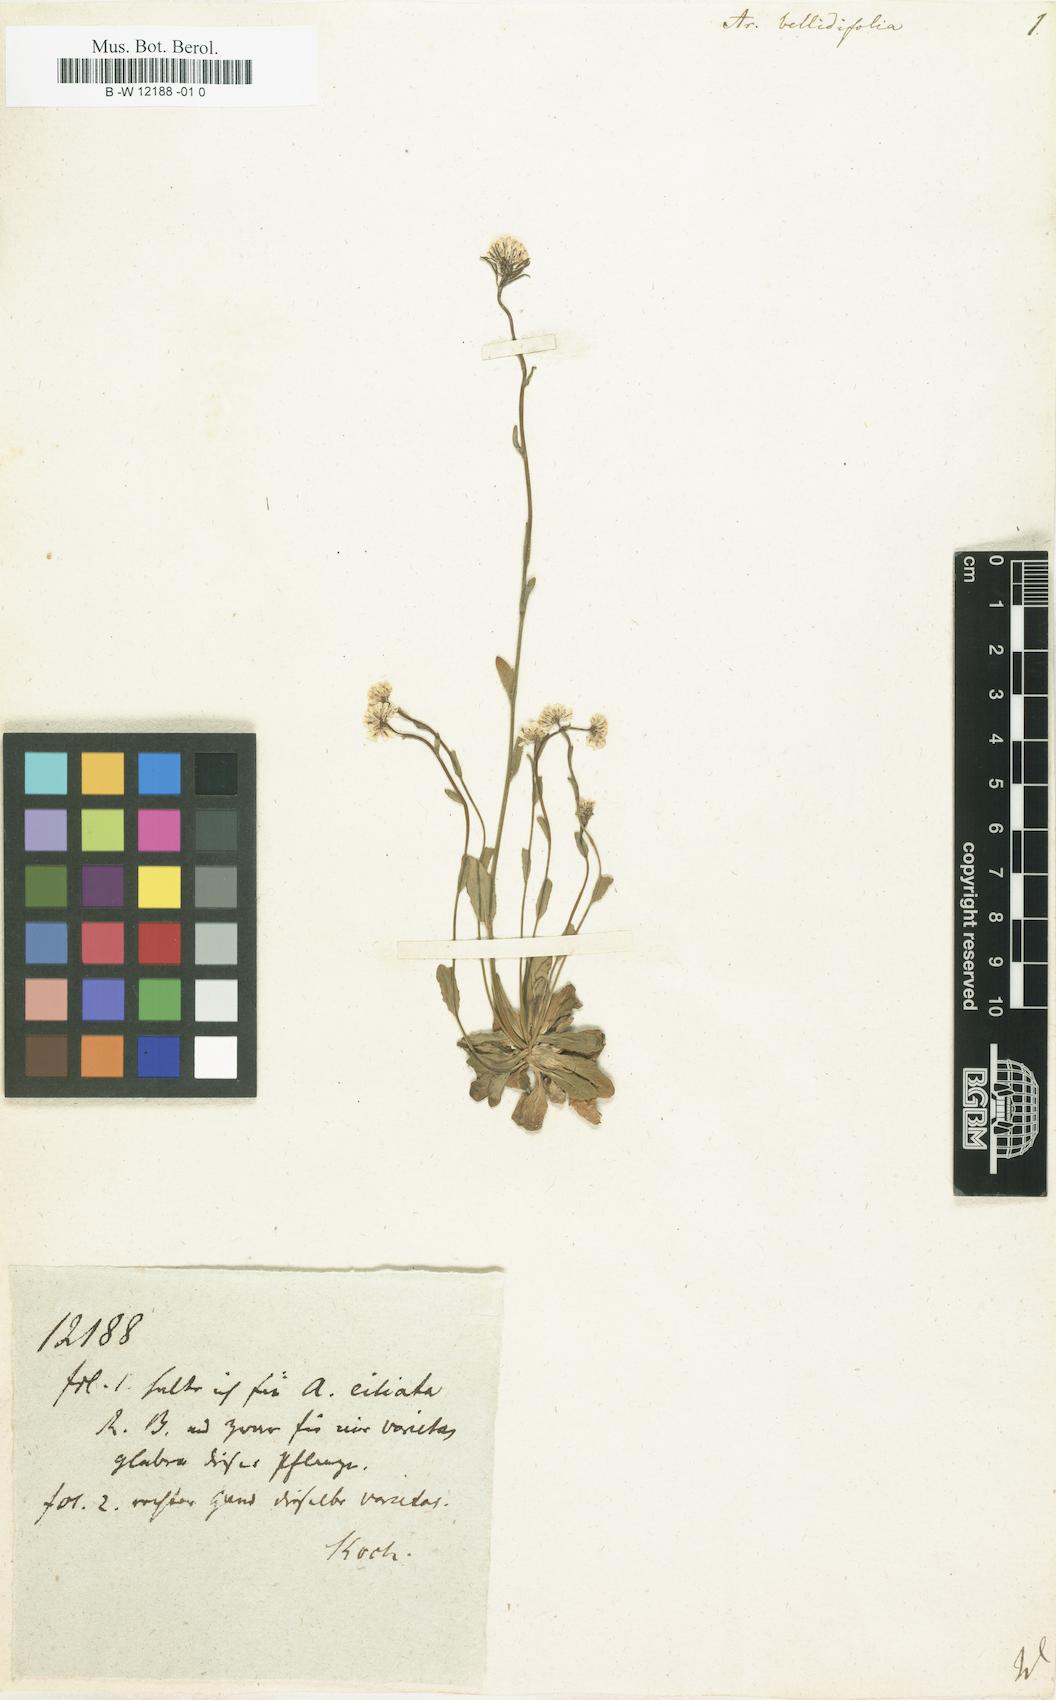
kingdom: Plantae
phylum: Tracheophyta
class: Magnoliopsida
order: Brassicales
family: Brassicaceae
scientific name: Brassicaceae
